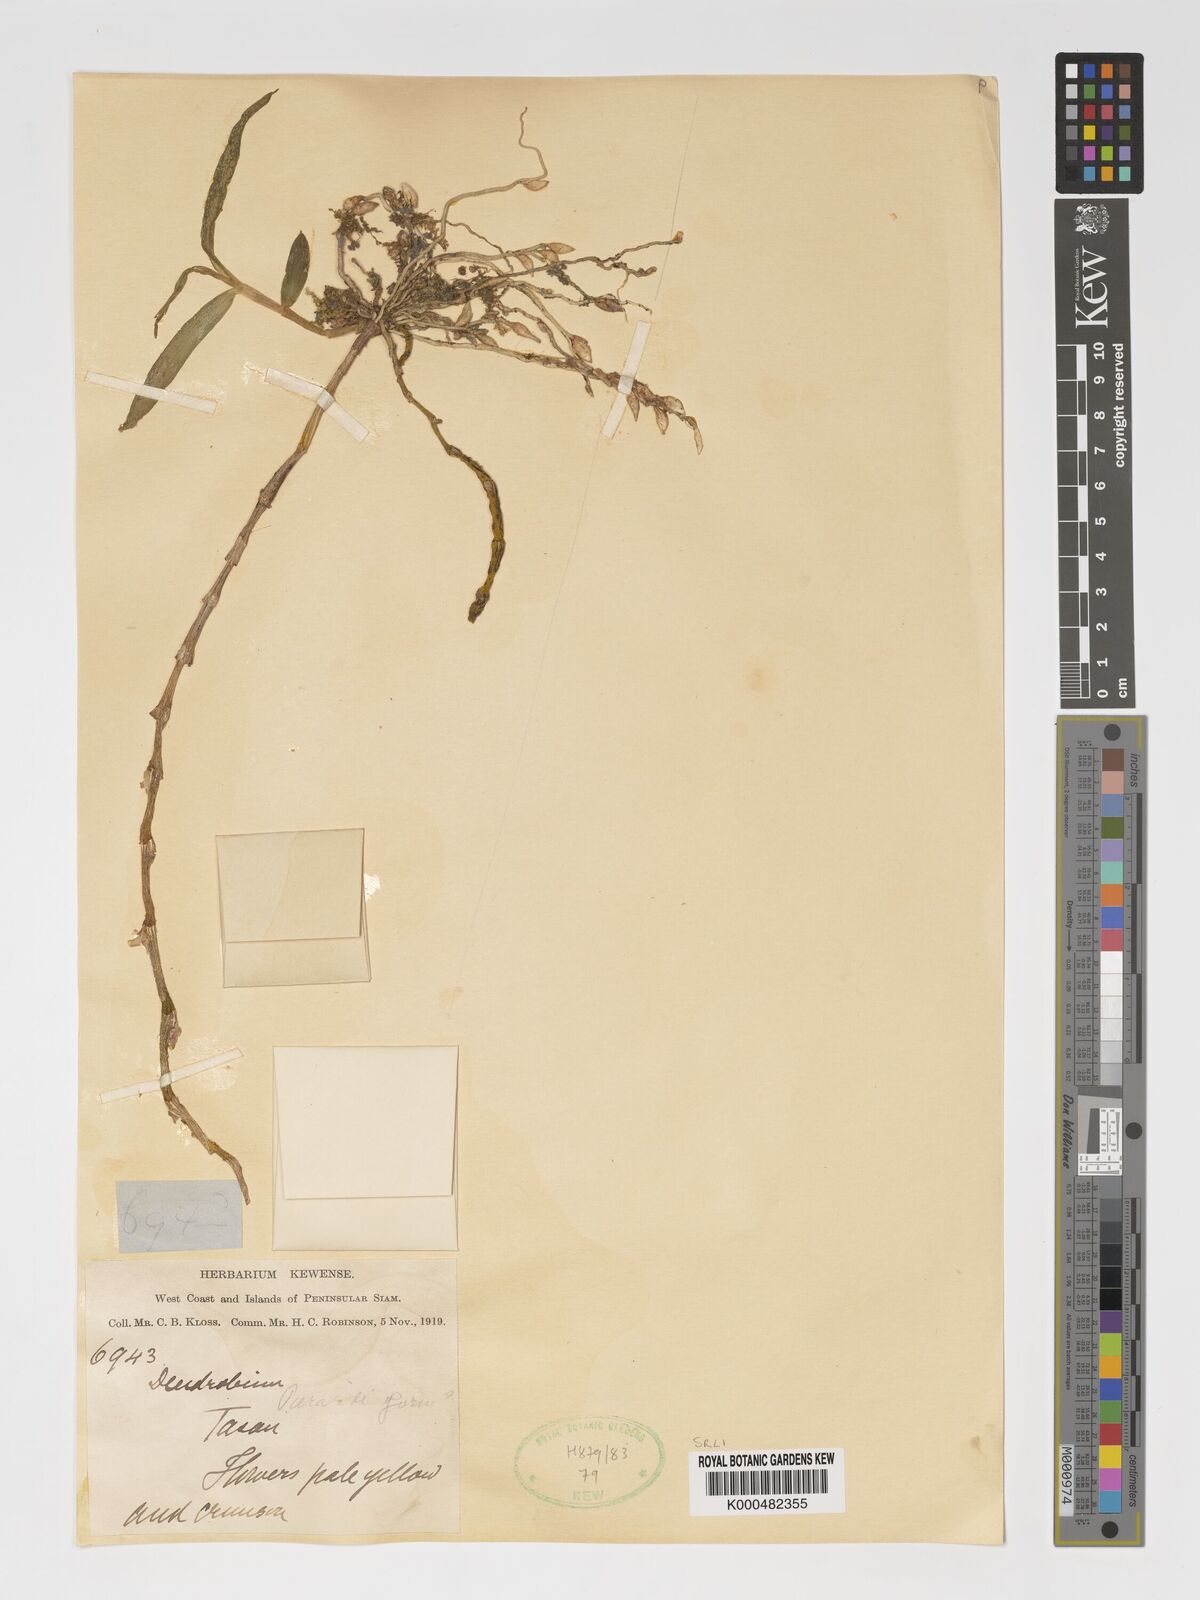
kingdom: Plantae
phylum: Tracheophyta
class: Liliopsida
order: Asparagales
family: Orchidaceae
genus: Dendrobium
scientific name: Dendrobium macrostachyum
